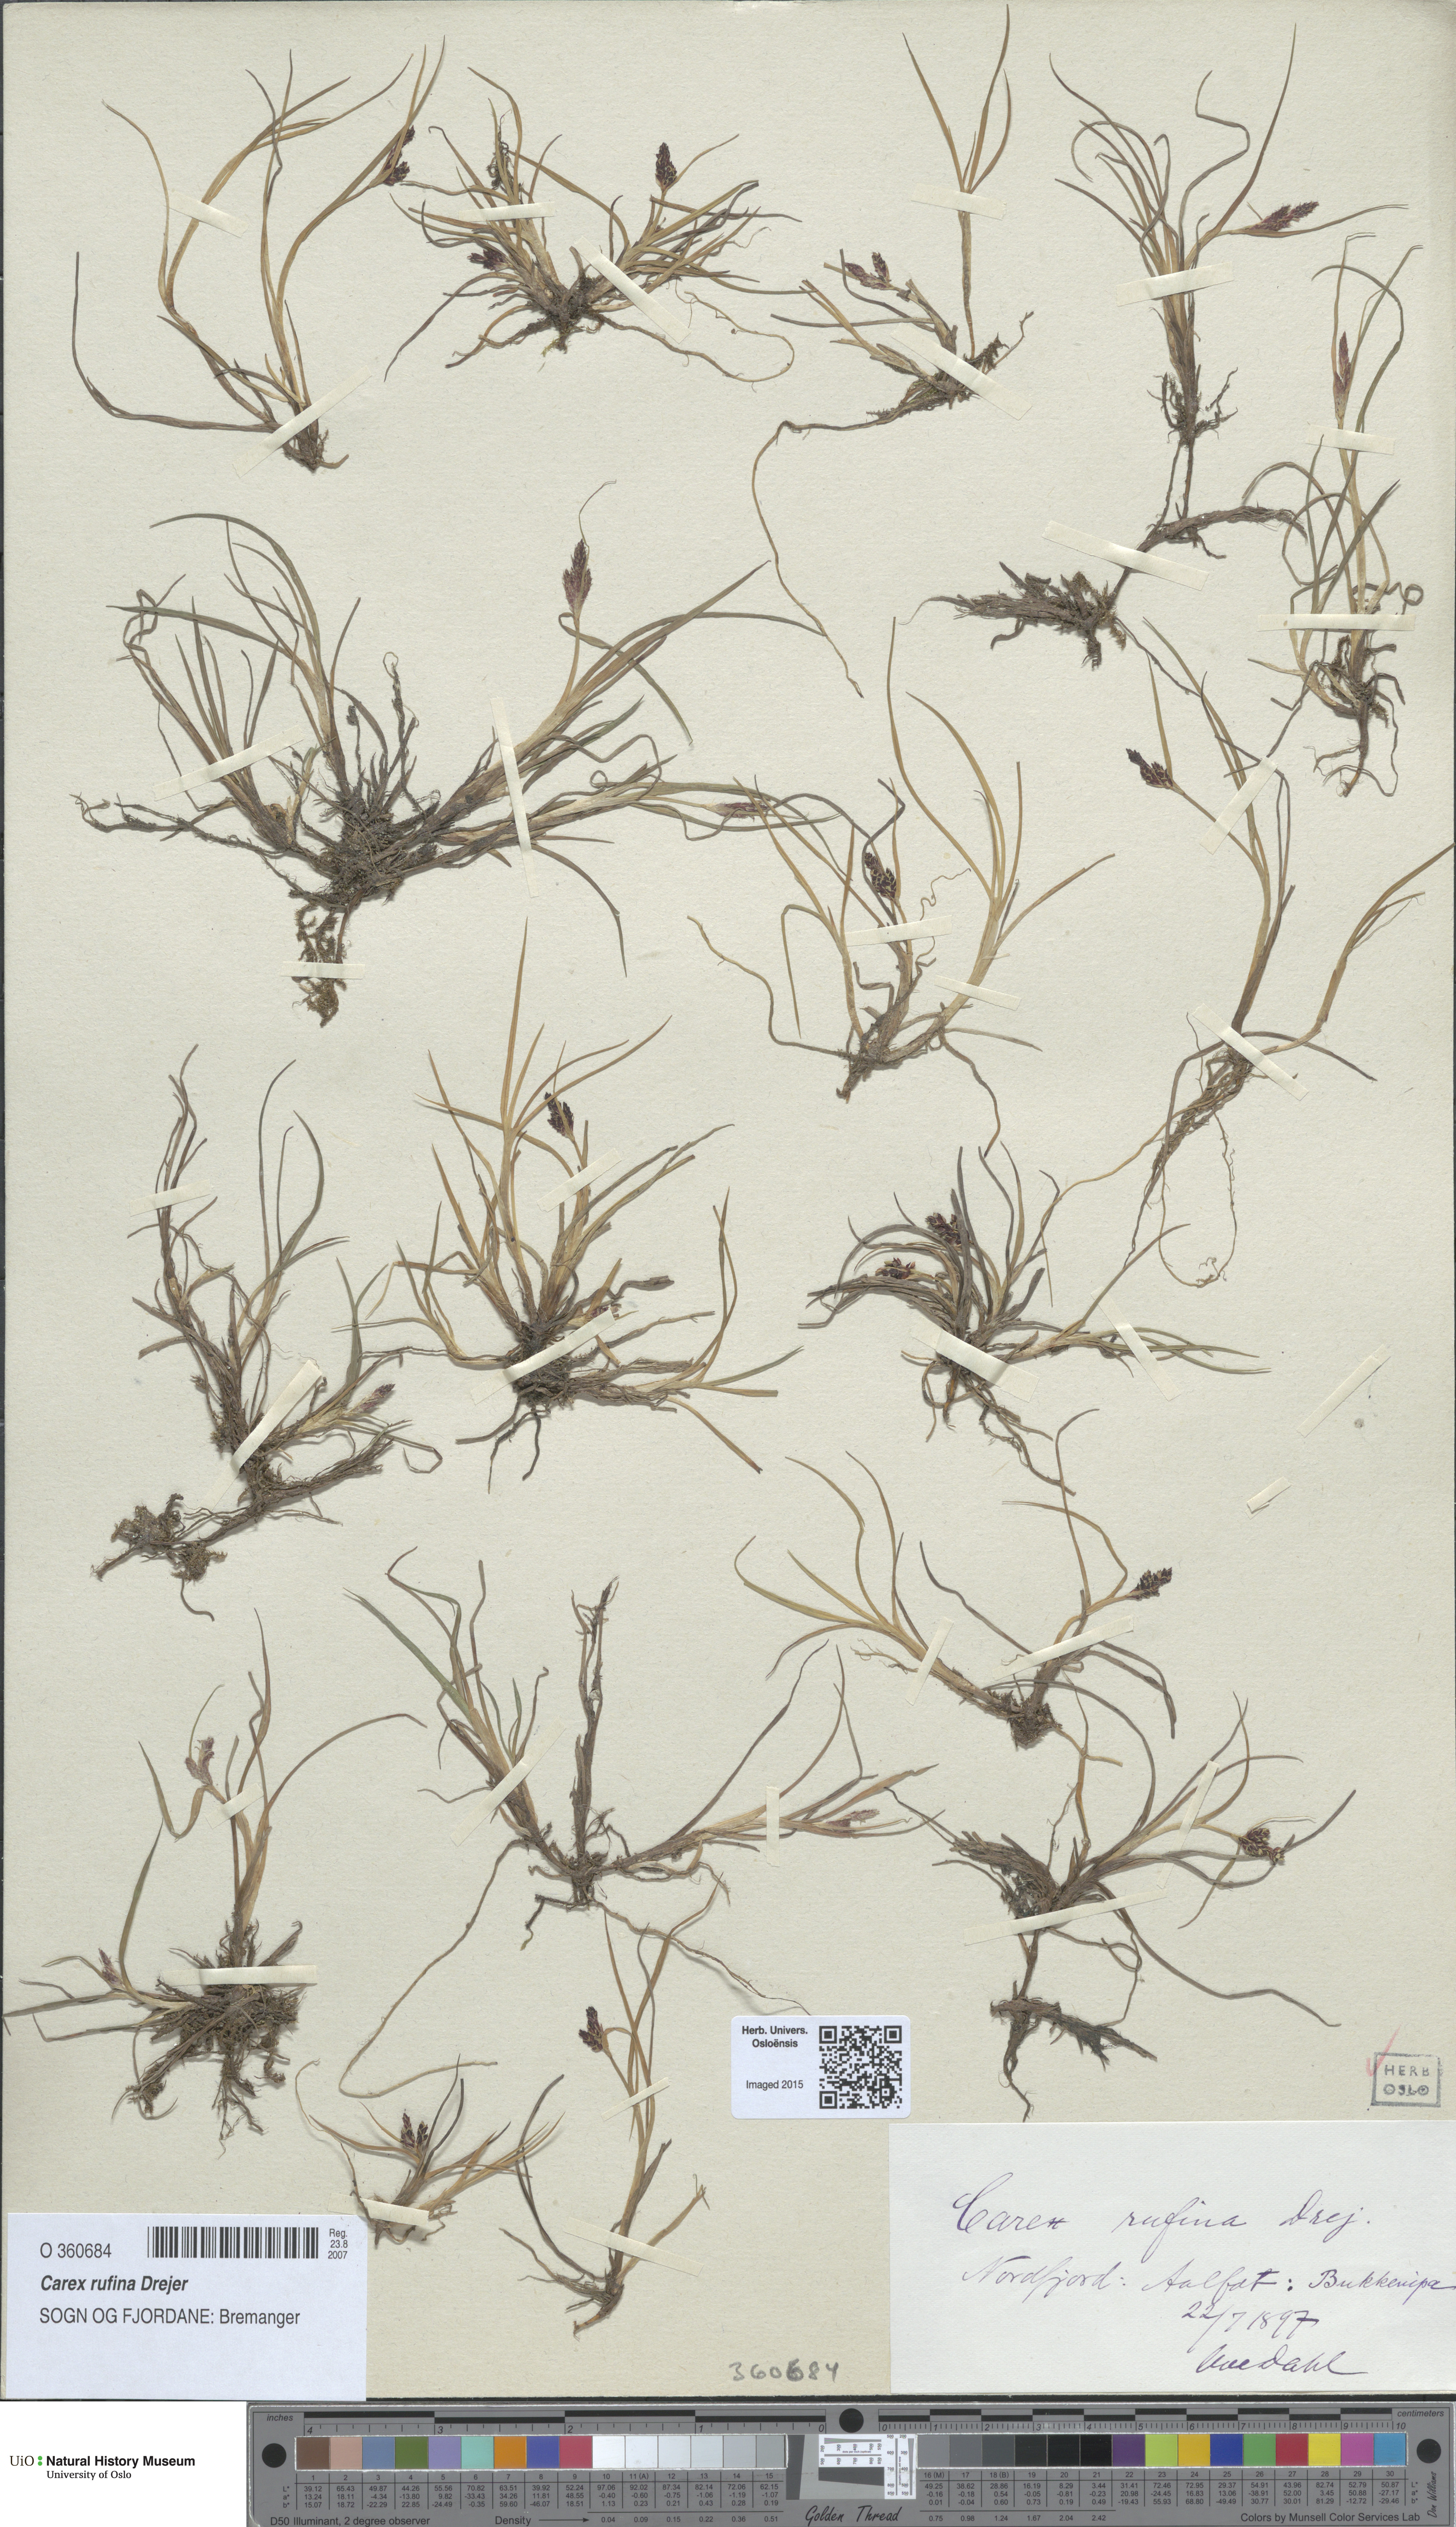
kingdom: Plantae
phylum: Tracheophyta
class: Liliopsida
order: Poales
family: Cyperaceae
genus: Carex
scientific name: Carex rufina
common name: Reddish sedge
